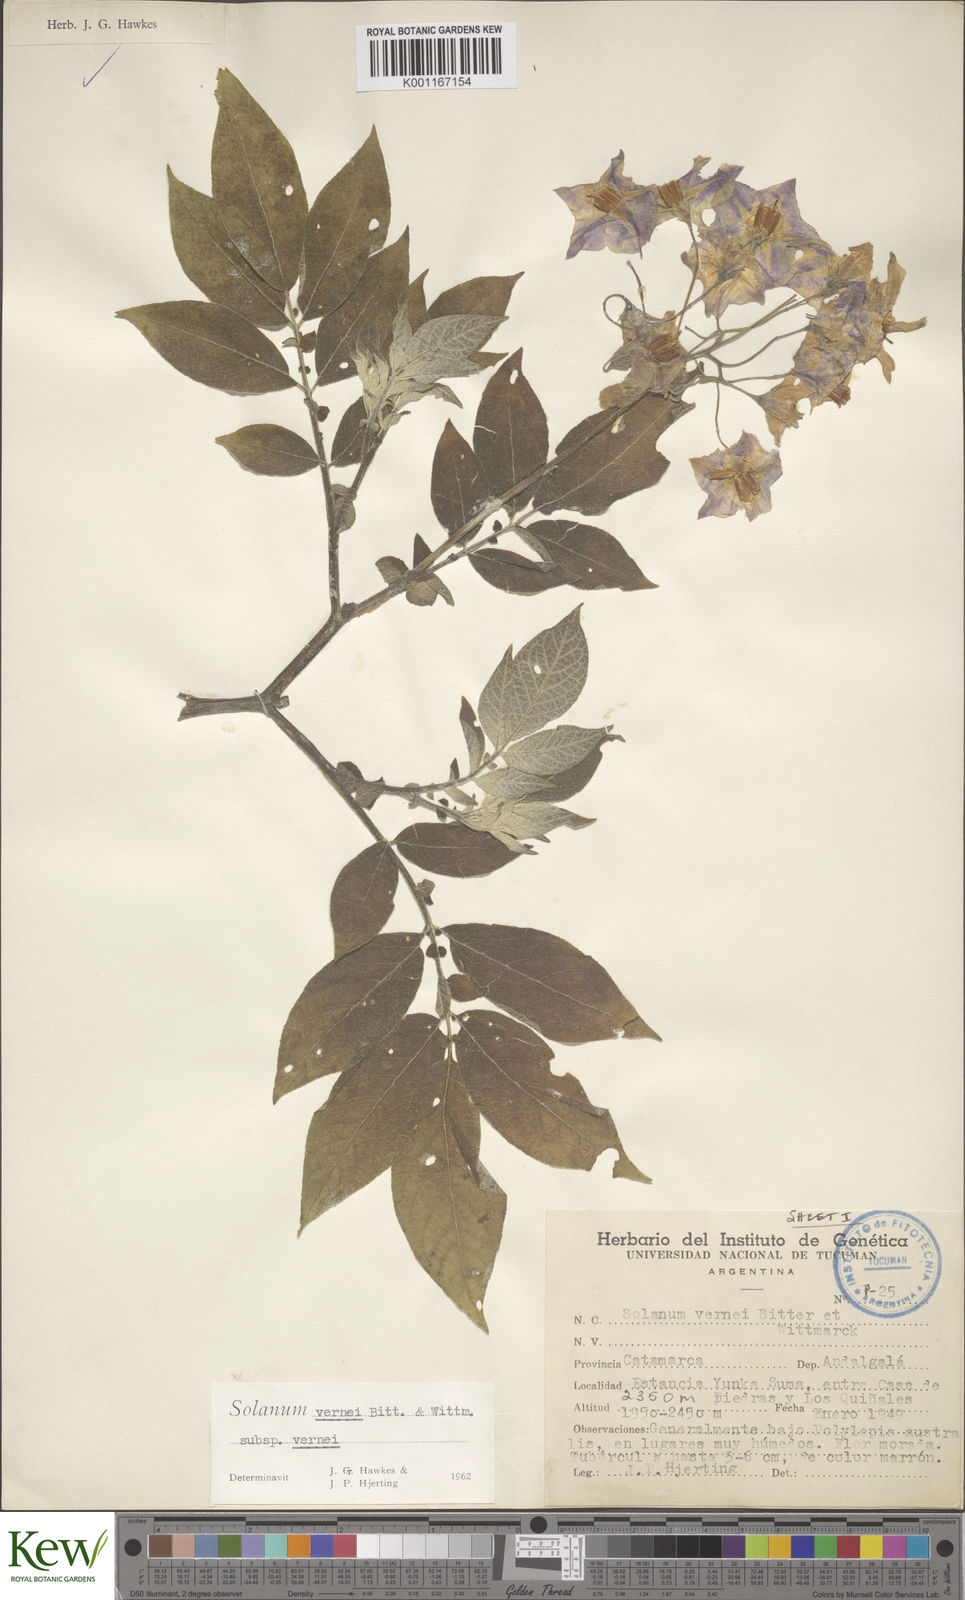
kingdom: Plantae
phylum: Tracheophyta
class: Magnoliopsida
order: Solanales
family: Solanaceae
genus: Solanum
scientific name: Solanum vernei
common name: Purple potato
